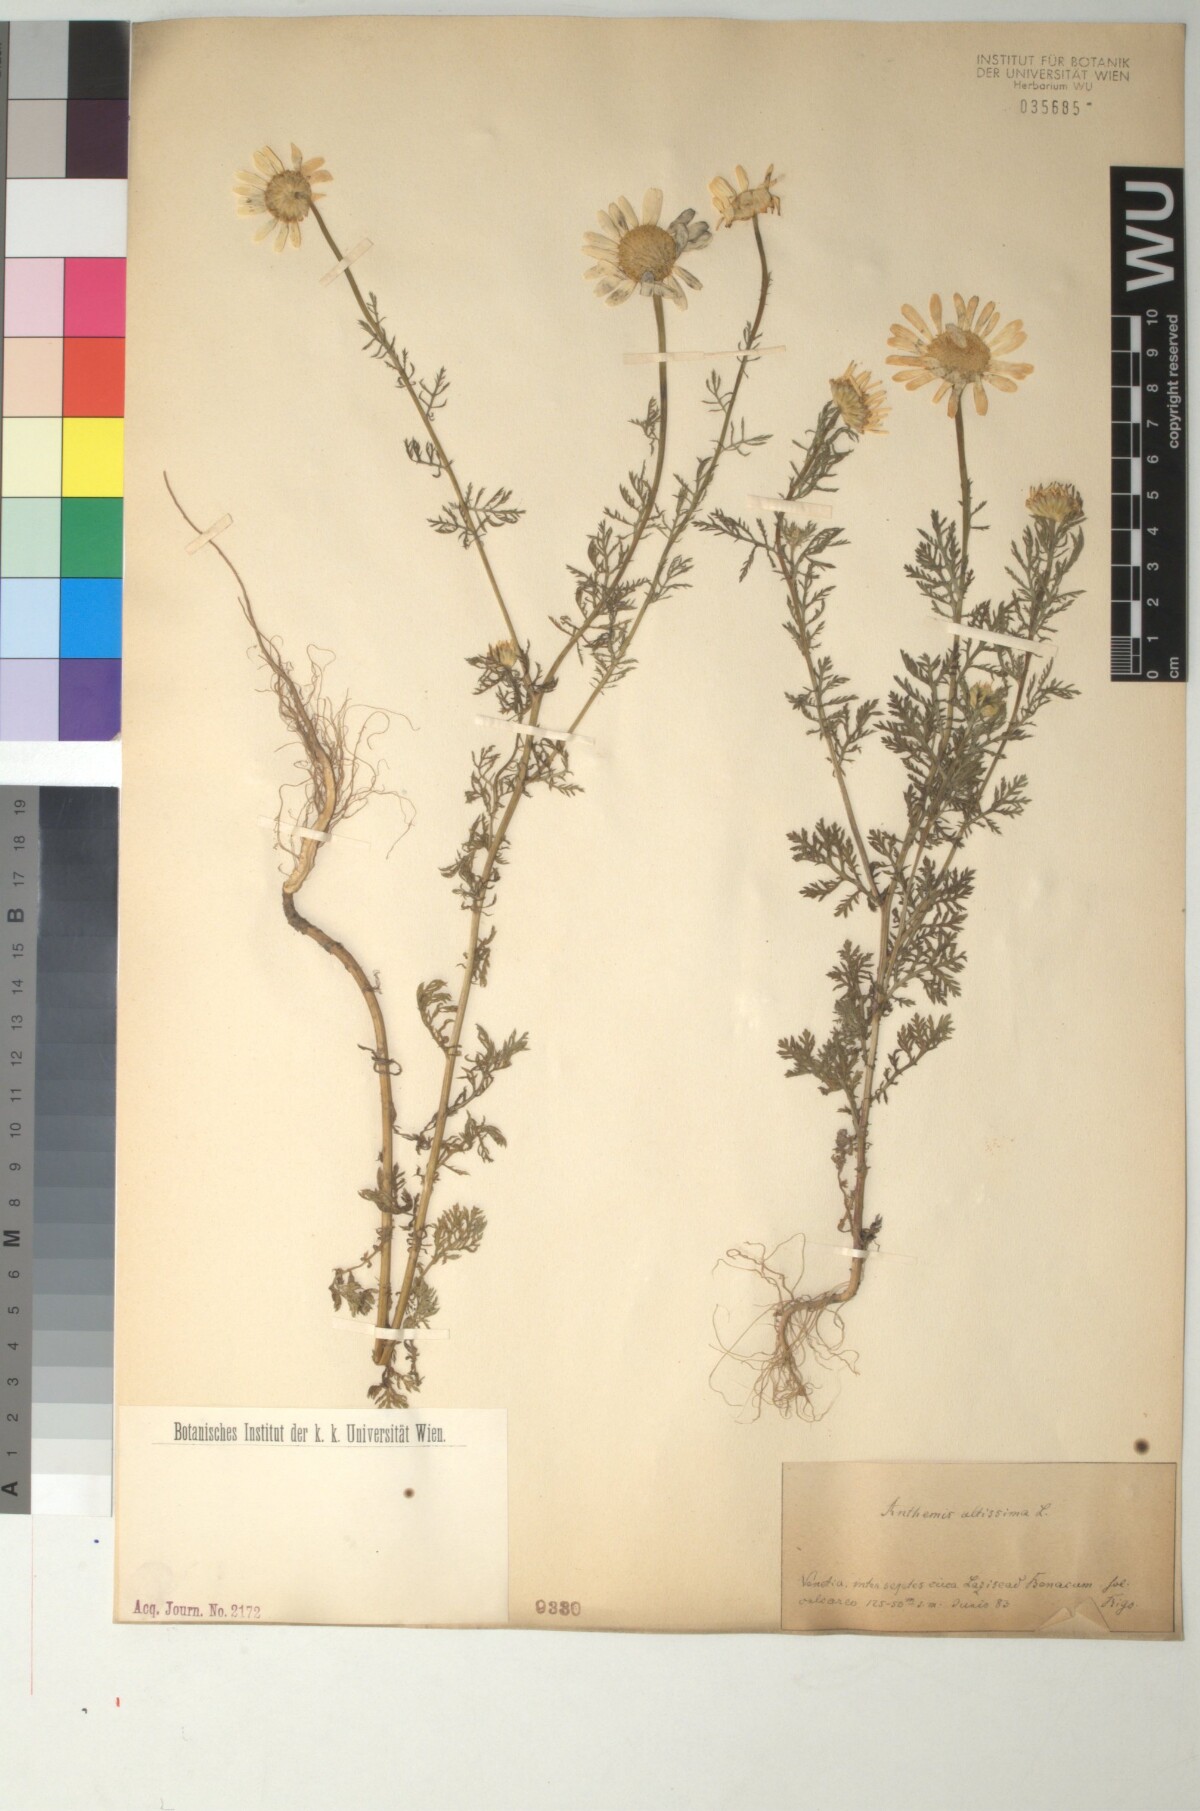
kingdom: Plantae
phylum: Tracheophyta
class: Magnoliopsida
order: Asterales
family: Asteraceae
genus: Cota
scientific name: Cota altissima
